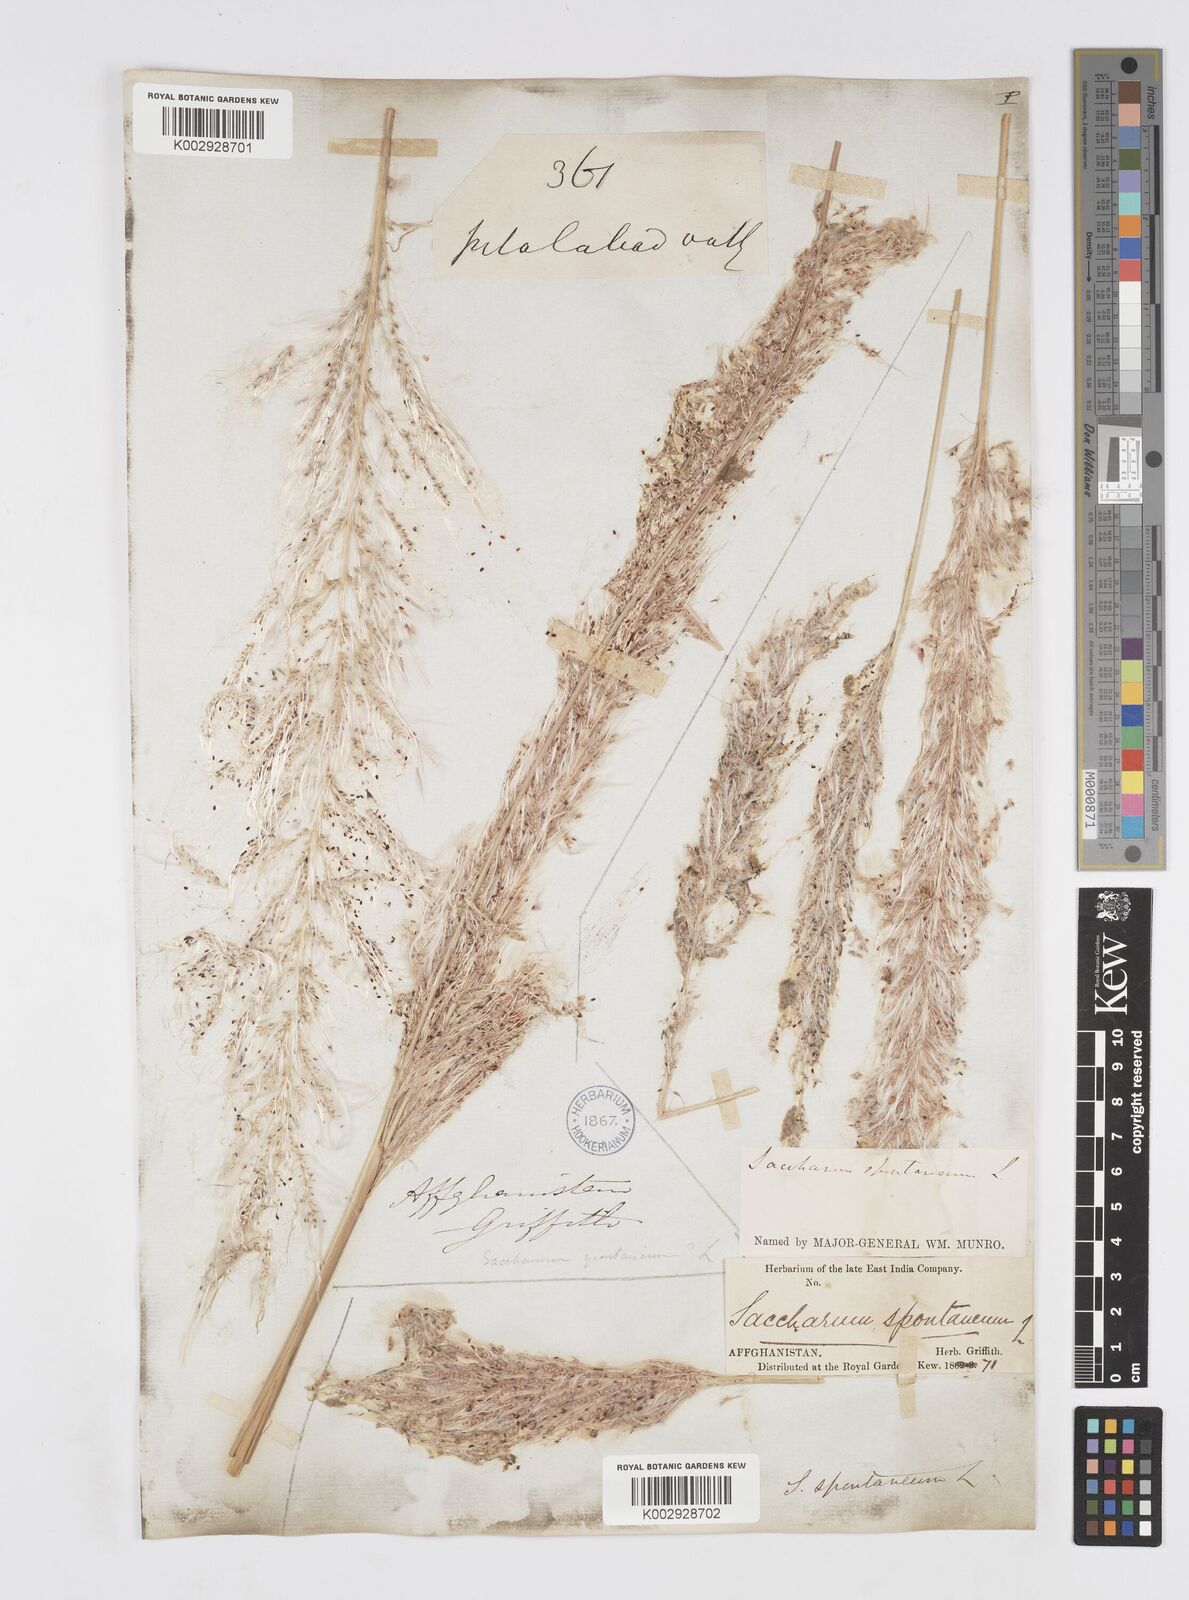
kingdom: Plantae
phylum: Tracheophyta
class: Liliopsida
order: Poales
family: Poaceae
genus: Saccharum
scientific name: Saccharum spontaneum
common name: Wild sugarcane
